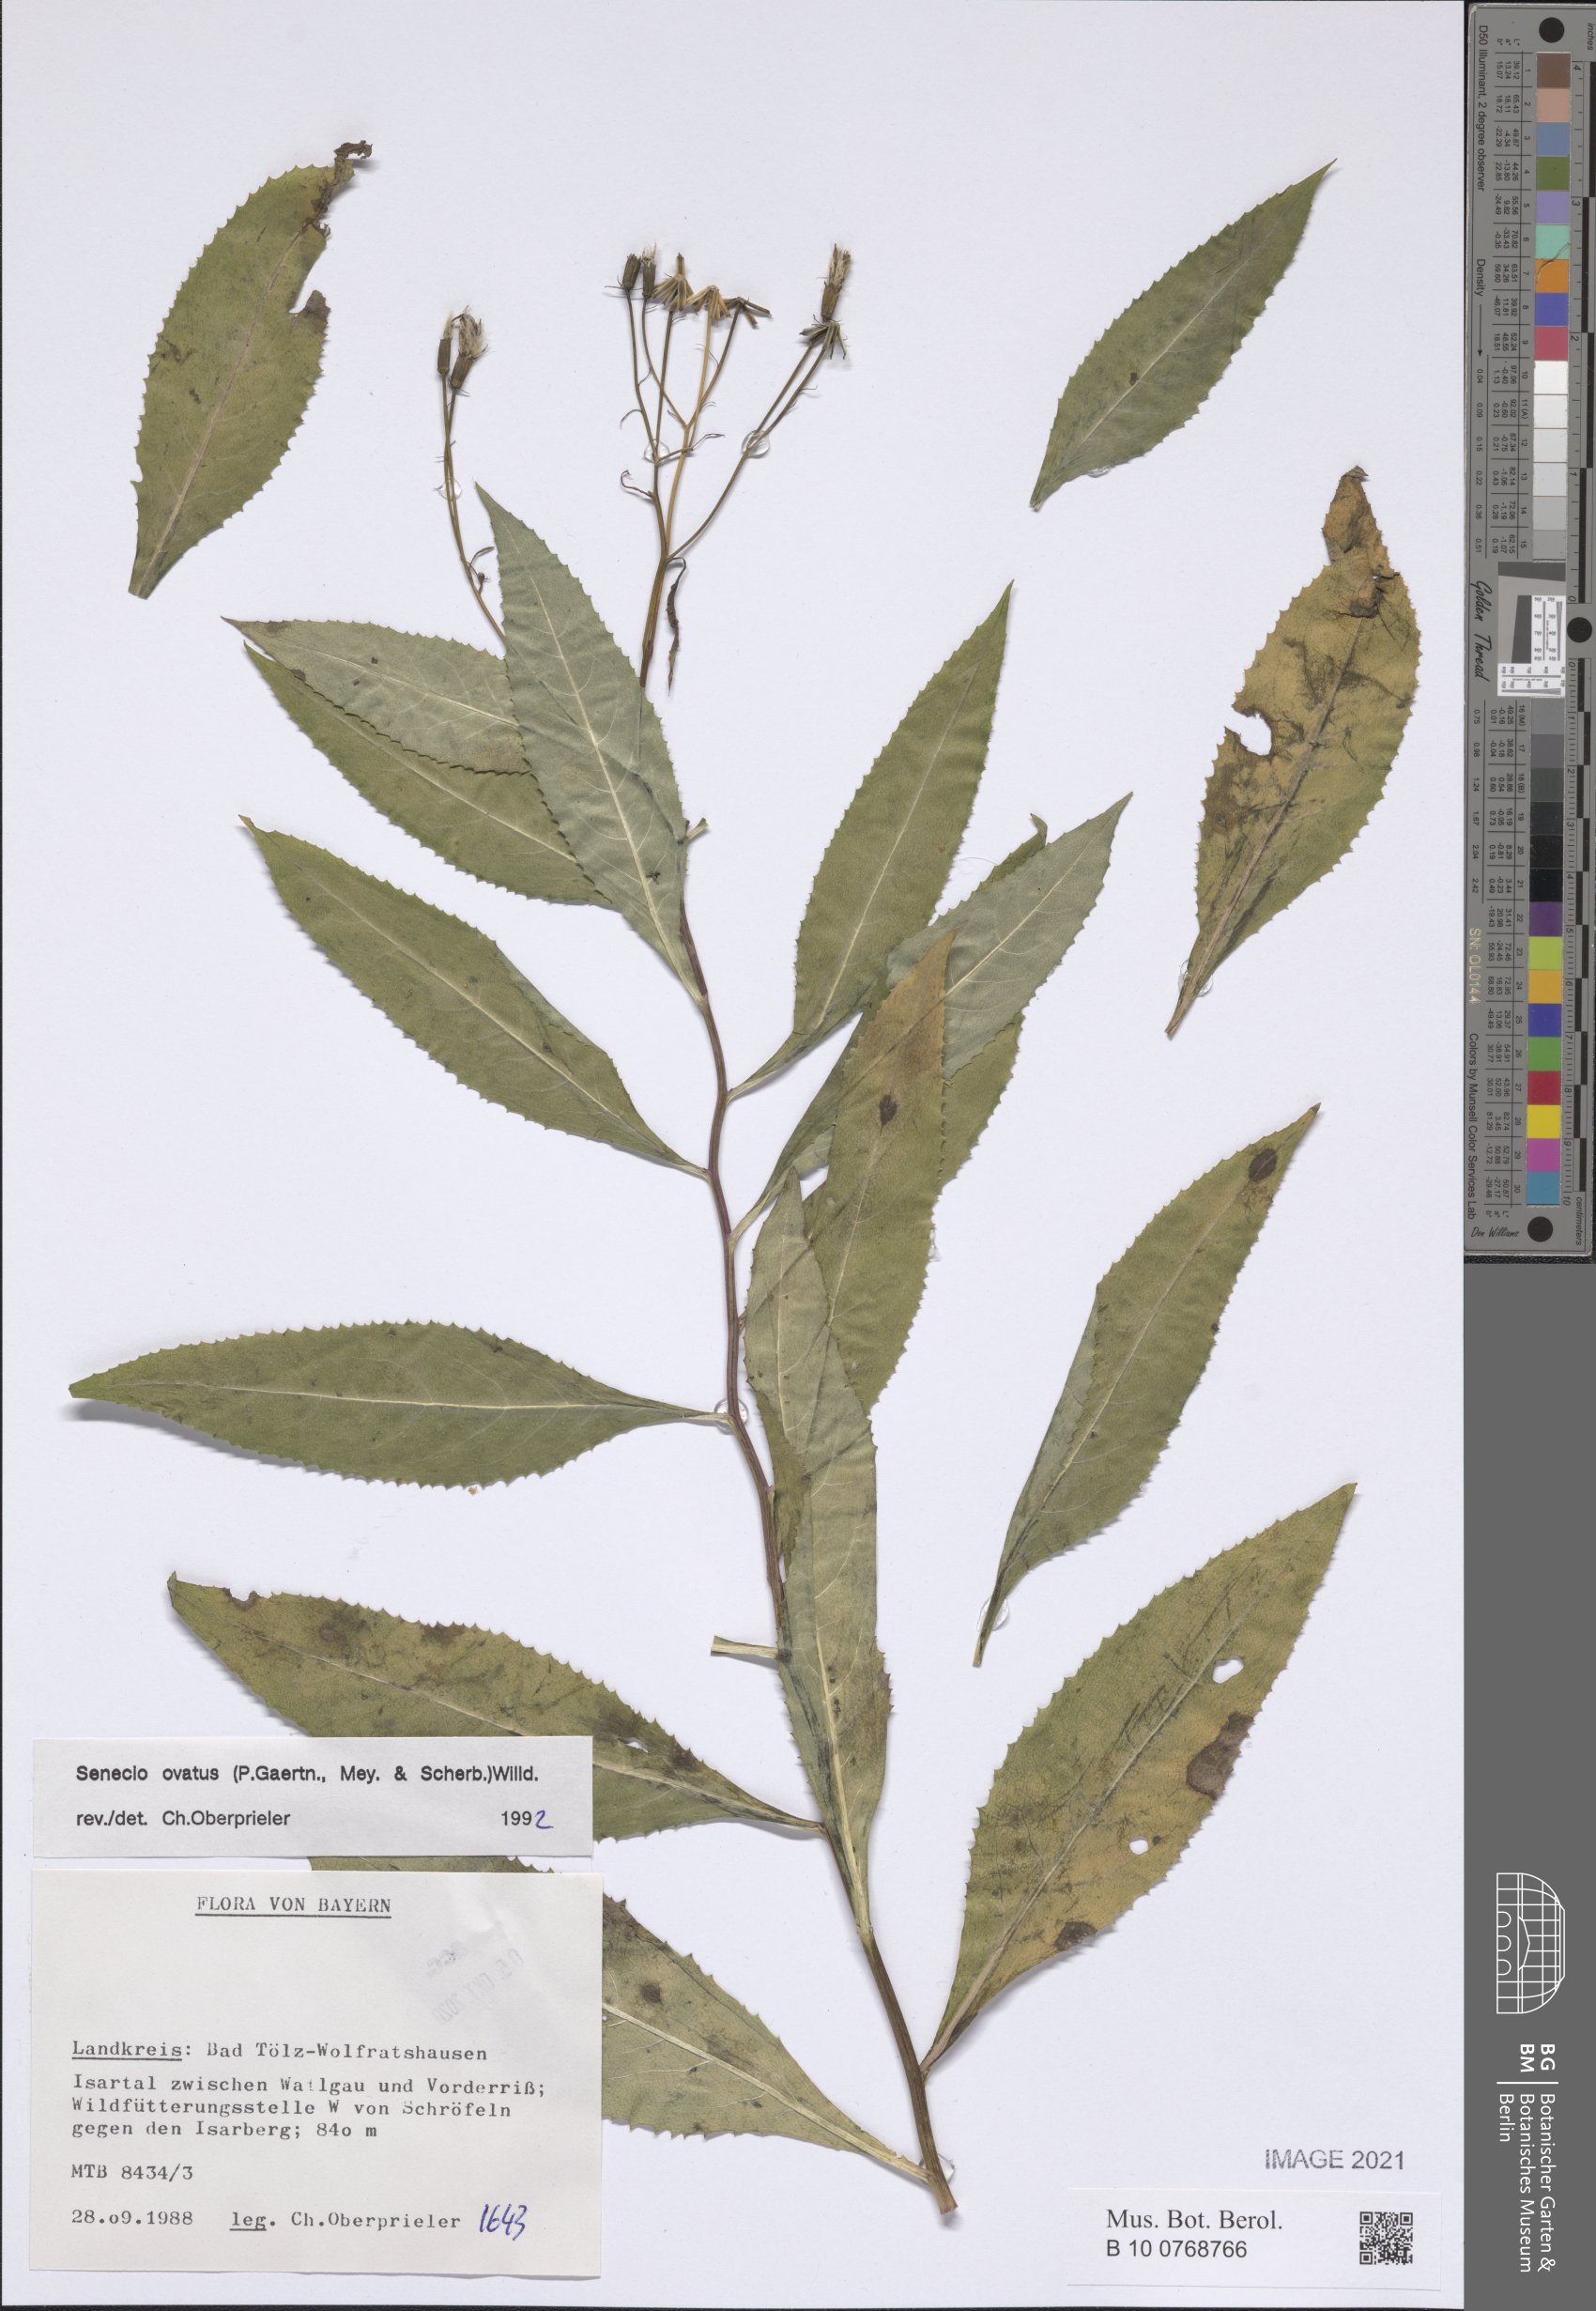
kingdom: Plantae
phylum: Tracheophyta
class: Magnoliopsida
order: Asterales
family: Asteraceae
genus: Senecio
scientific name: Senecio ovatus
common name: Wood ragwort
